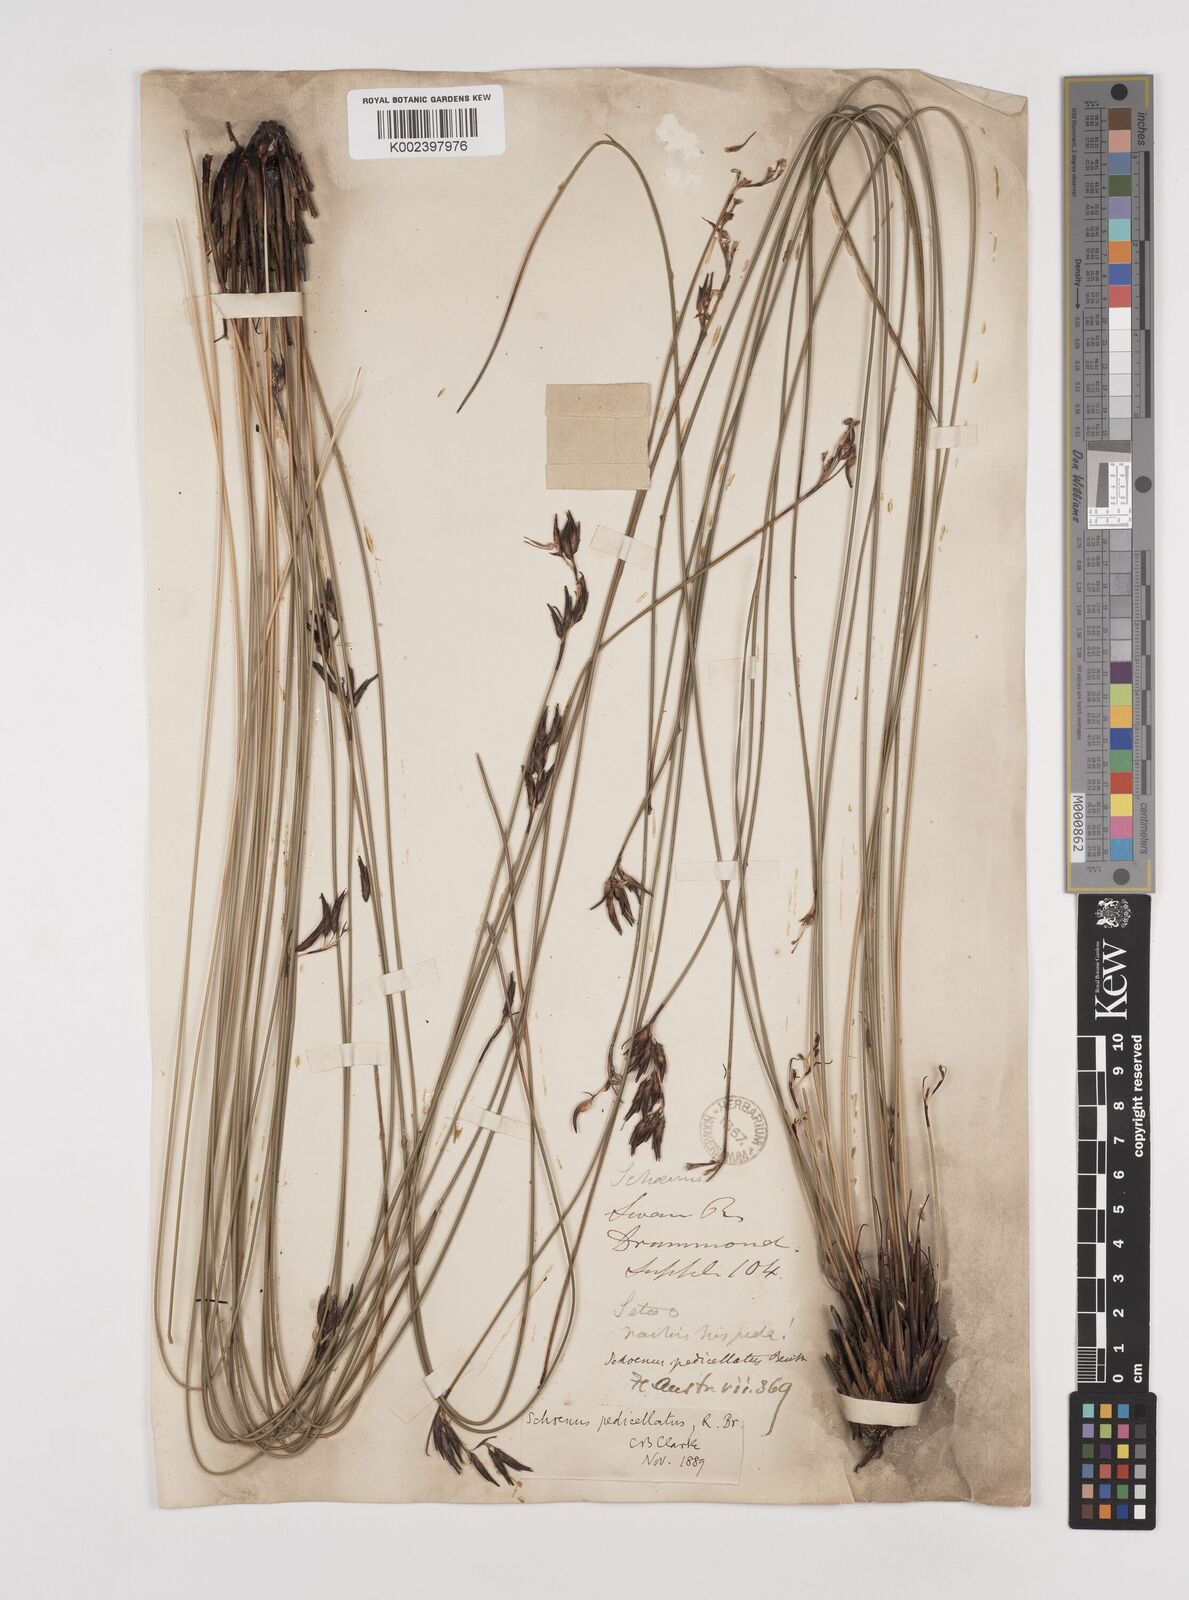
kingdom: Plantae
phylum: Tracheophyta
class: Liliopsida
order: Poales
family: Cyperaceae
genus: Schoenus
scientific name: Schoenus brevisetis
